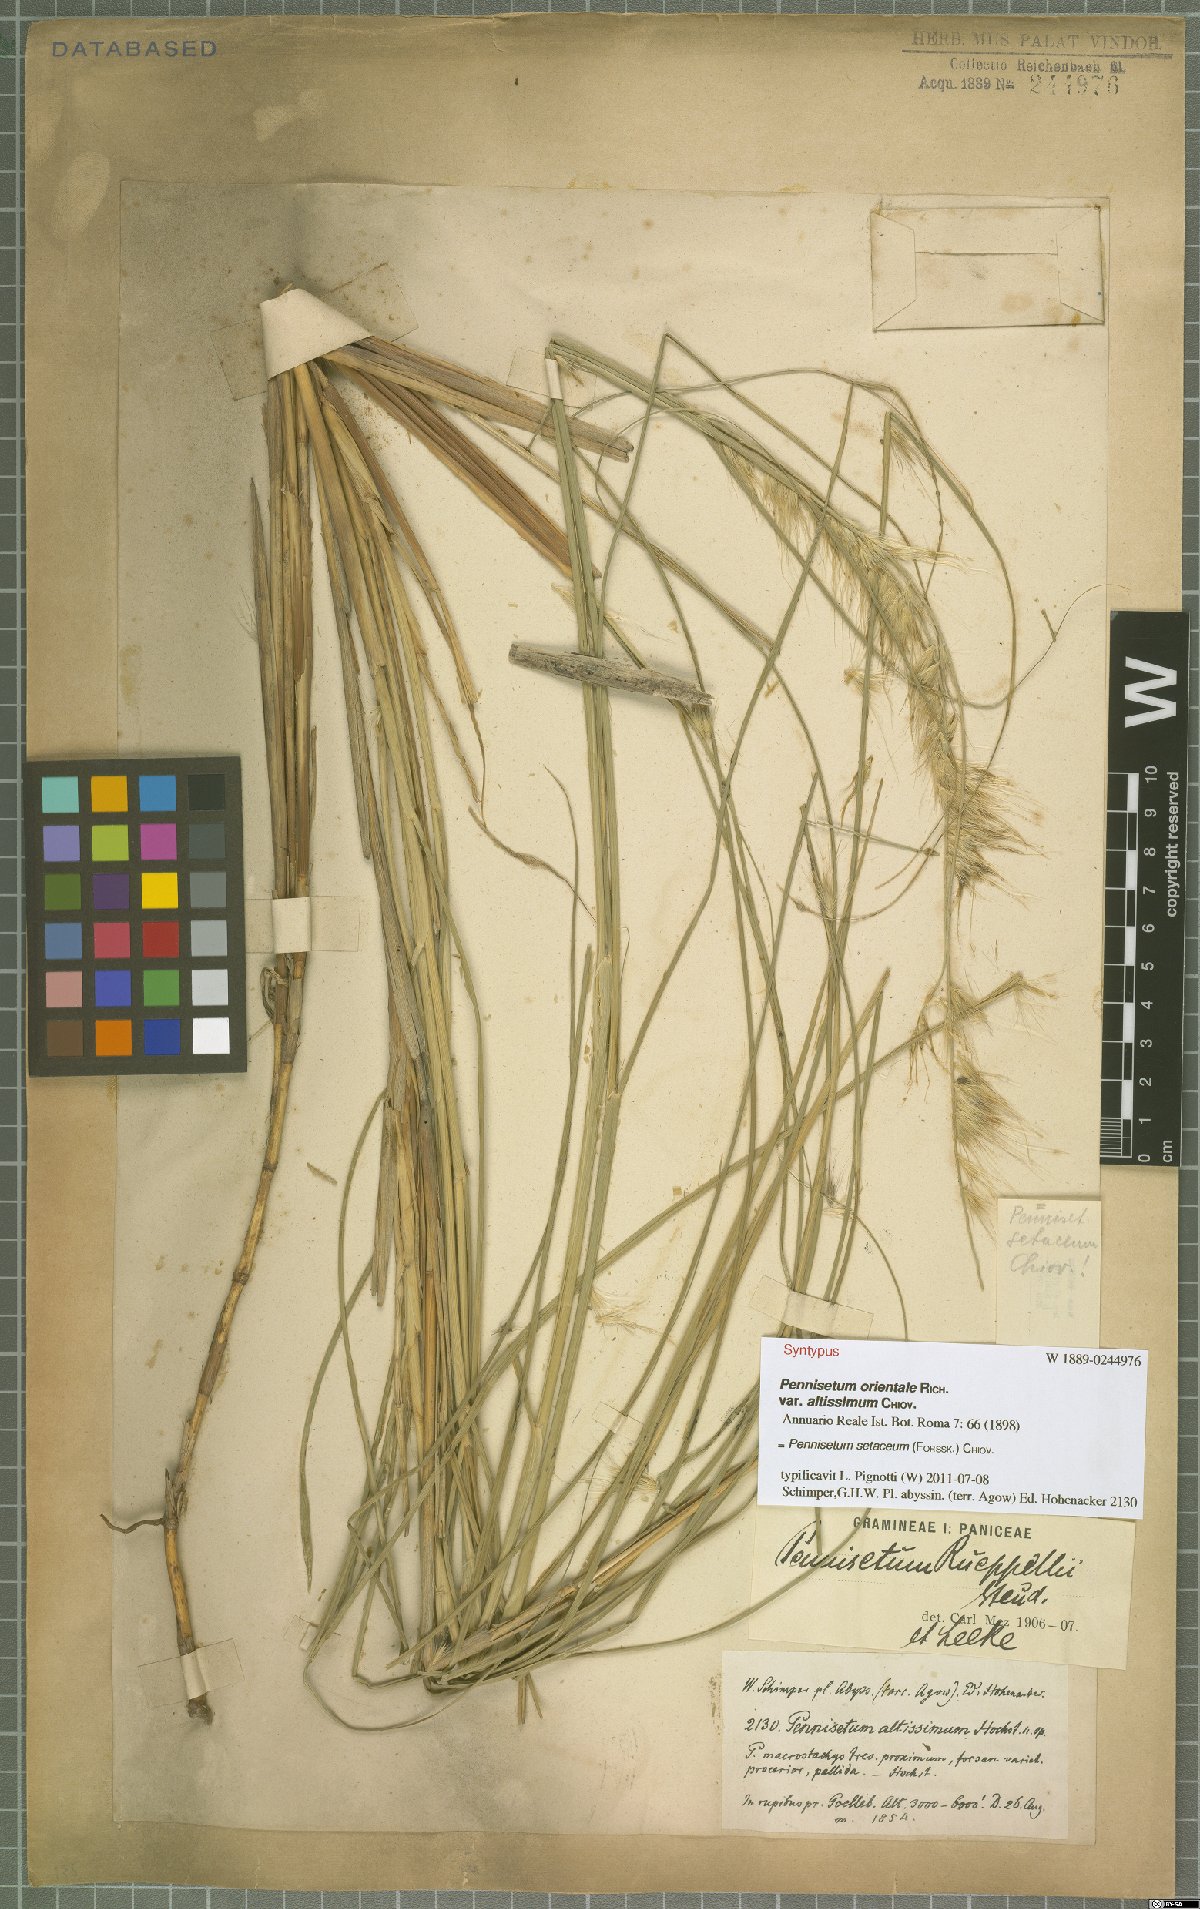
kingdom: Plantae
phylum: Tracheophyta
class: Liliopsida
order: Poales
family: Poaceae
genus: Cenchrus
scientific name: Cenchrus setaceus
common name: Crimson fountaingrass
